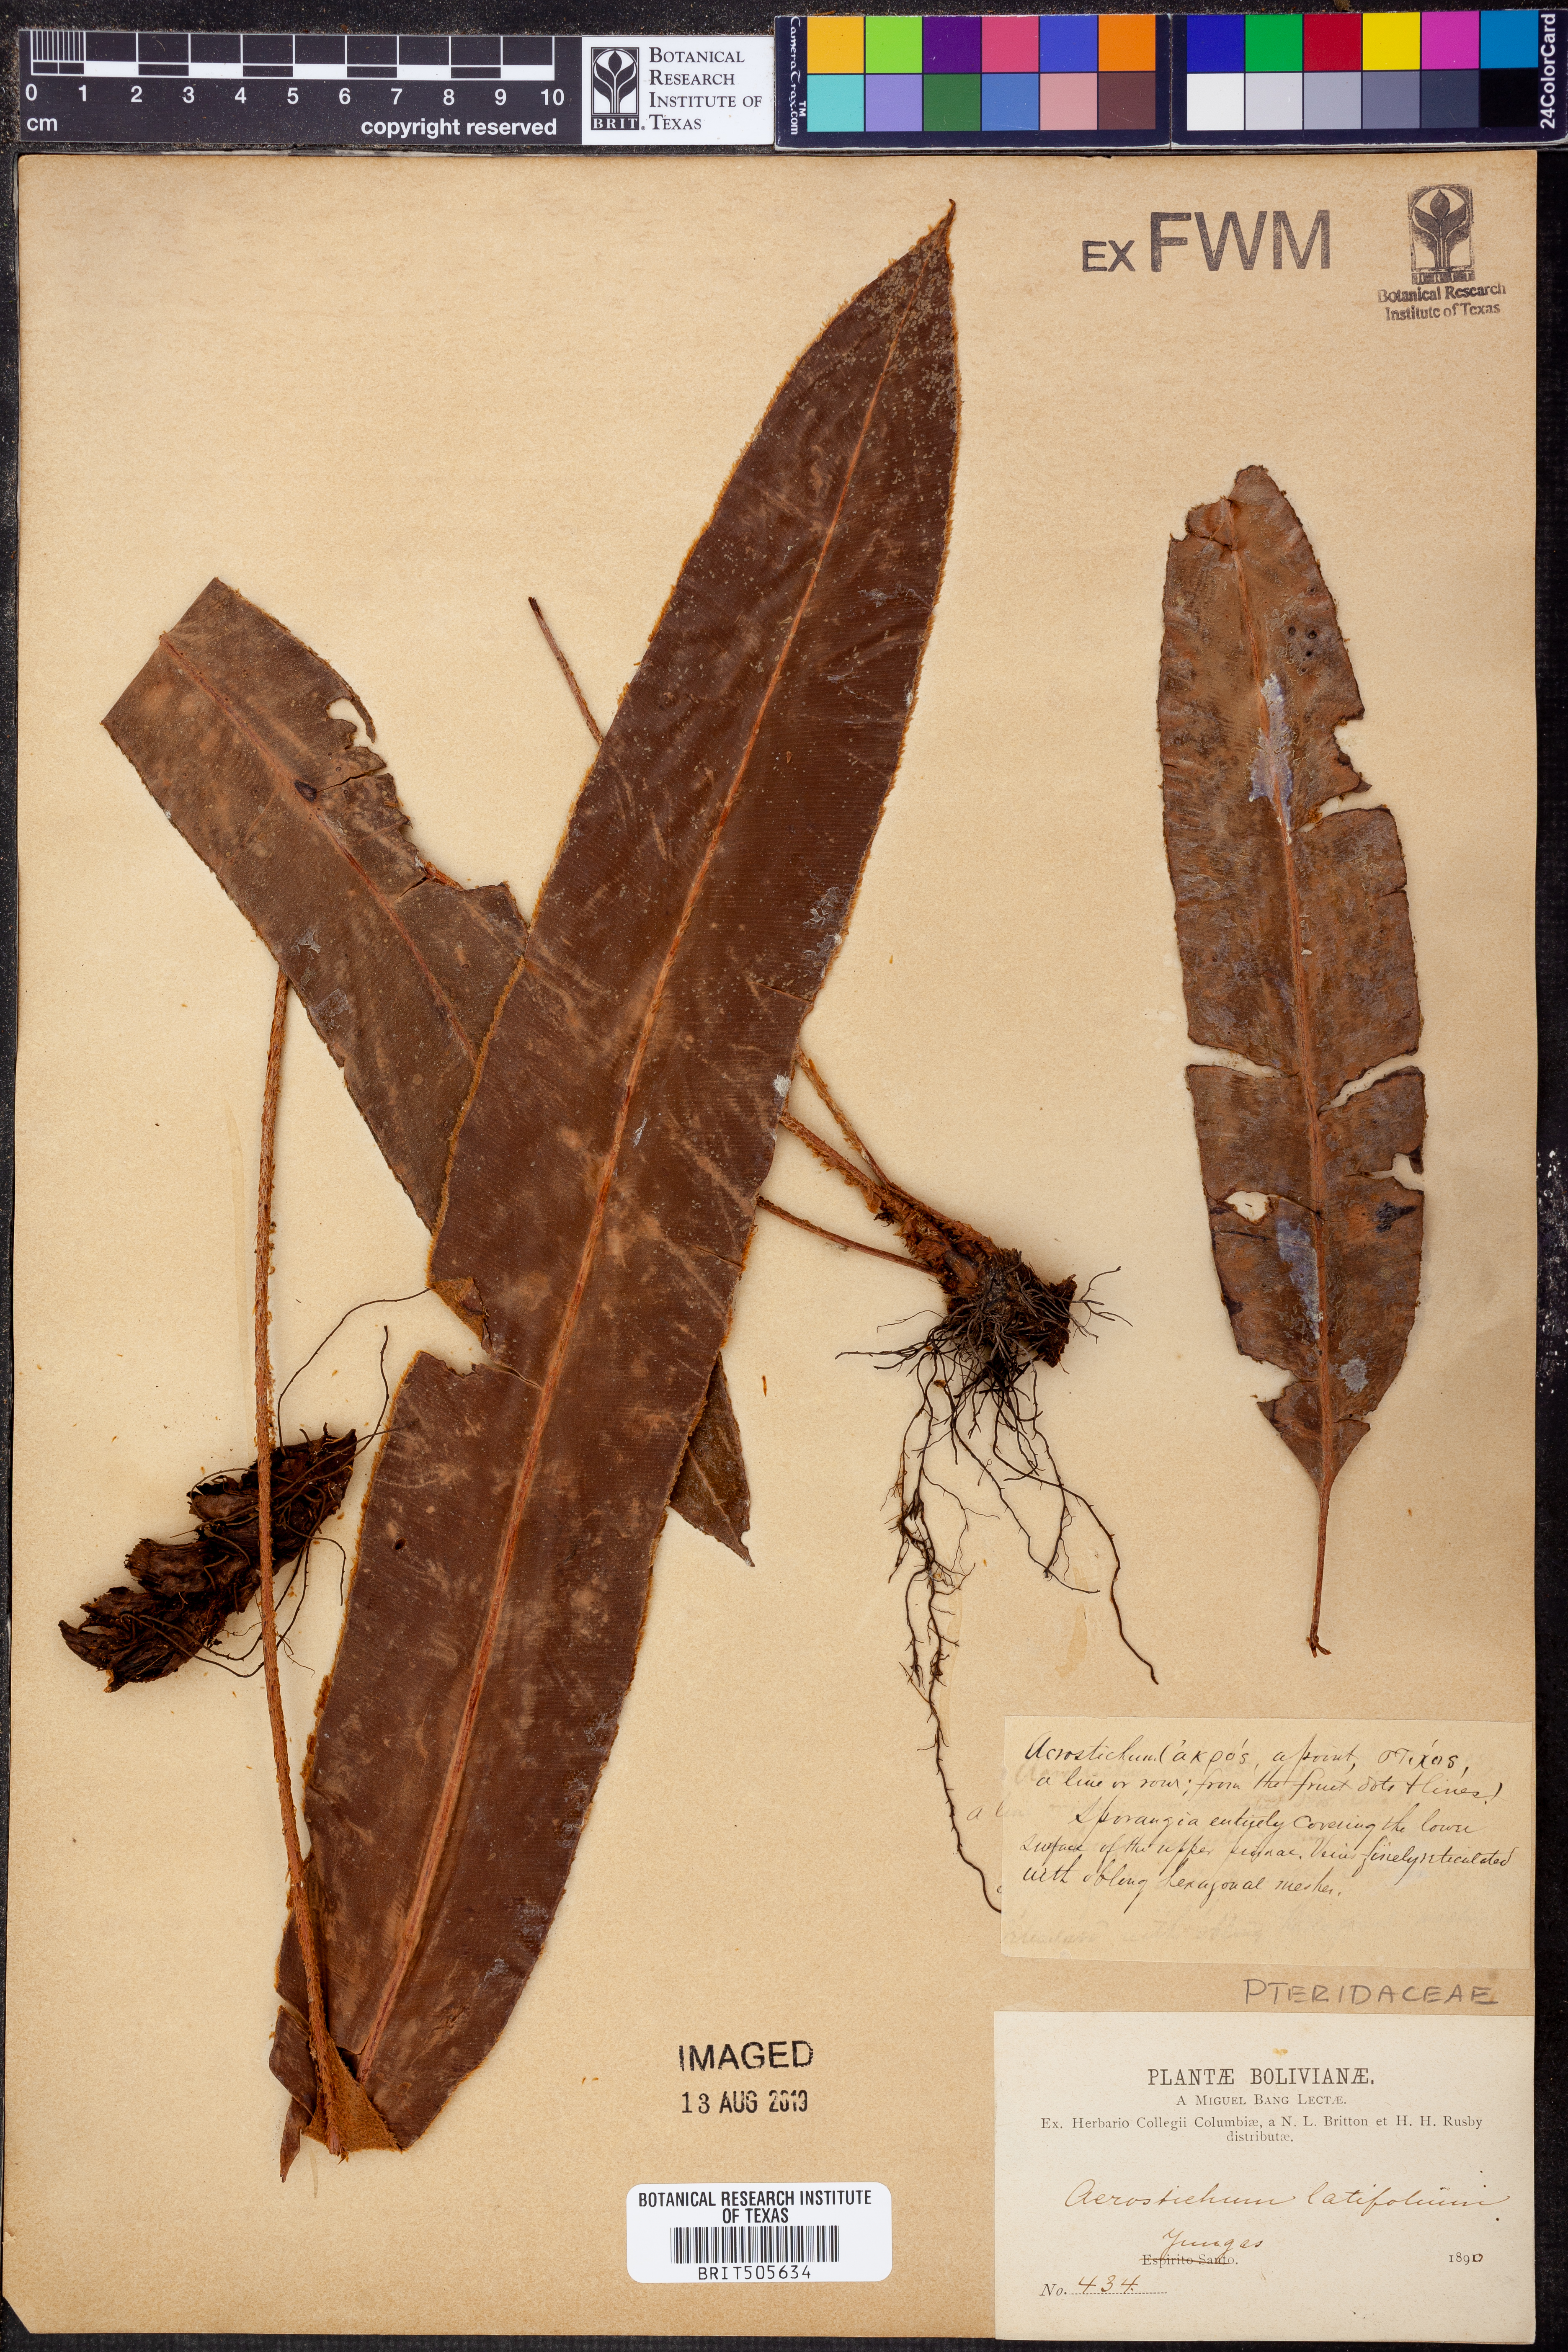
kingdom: Plantae
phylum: Tracheophyta
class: Polypodiopsida
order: Polypodiales
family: Dryopteridaceae
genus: Elaphoglossum
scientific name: Elaphoglossum latifolium
